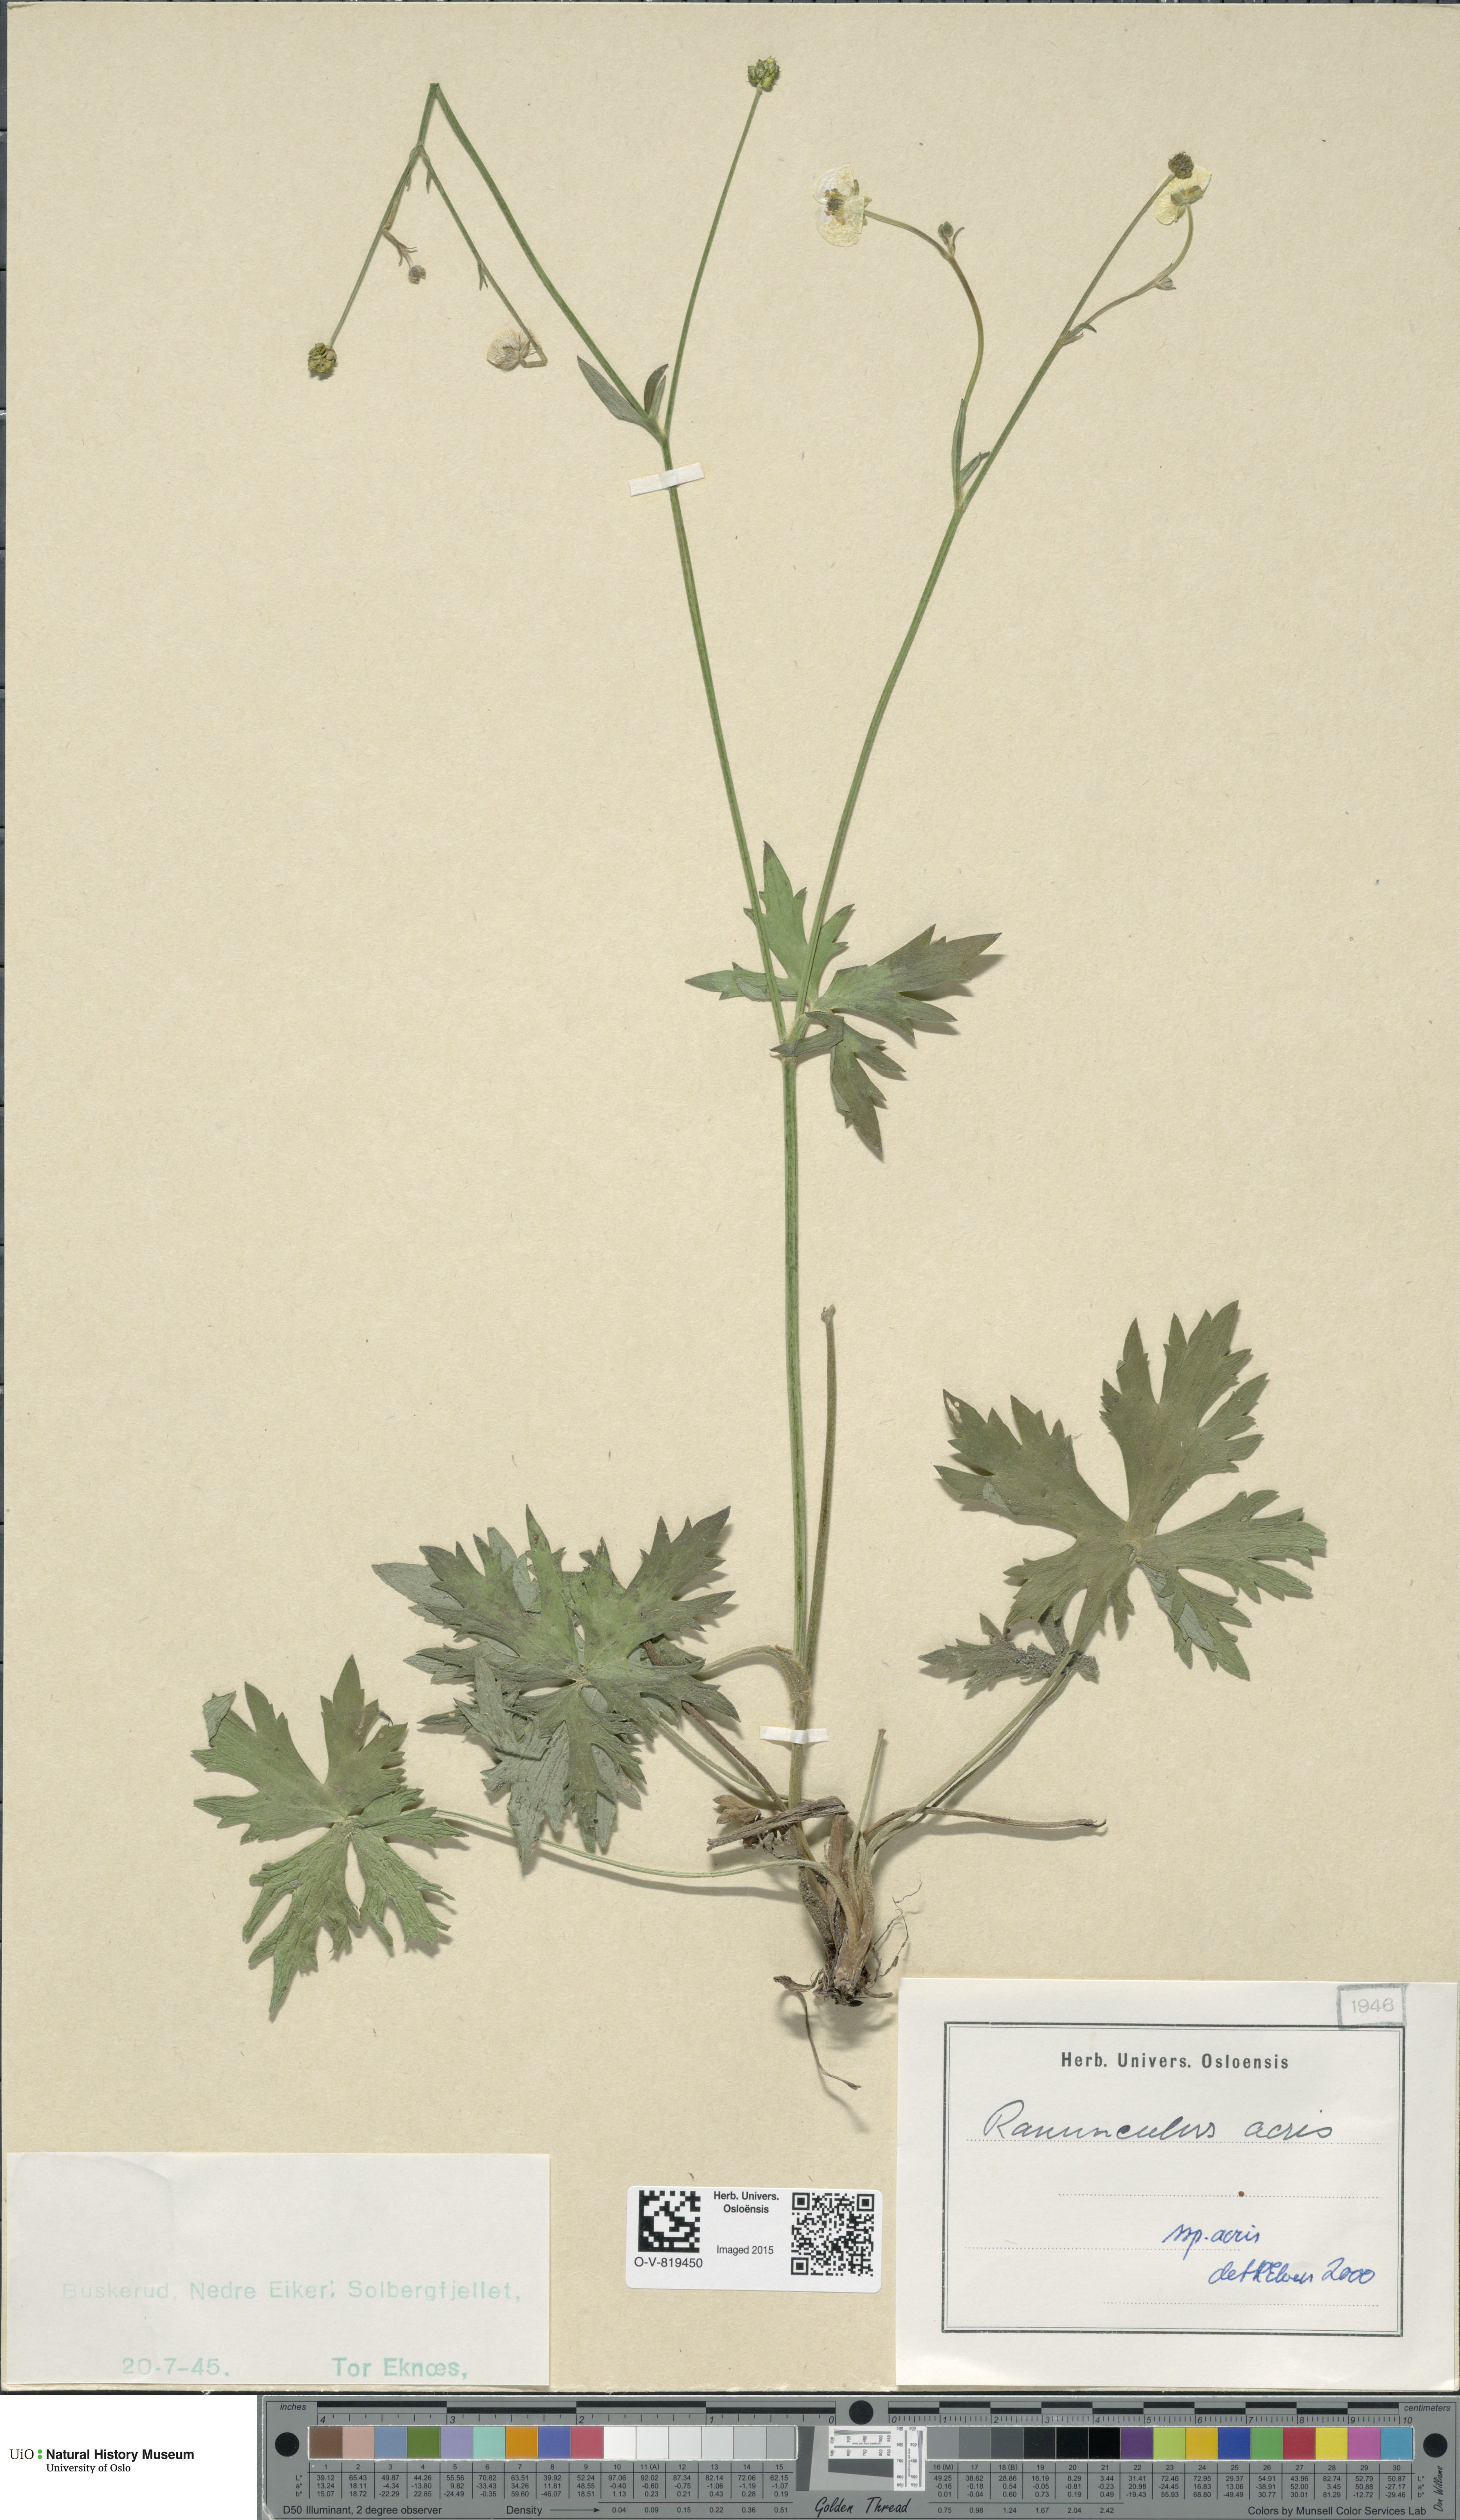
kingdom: Plantae
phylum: Tracheophyta
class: Magnoliopsida
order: Ranunculales
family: Ranunculaceae
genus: Ranunculus
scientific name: Ranunculus acris
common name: Meadow buttercup
